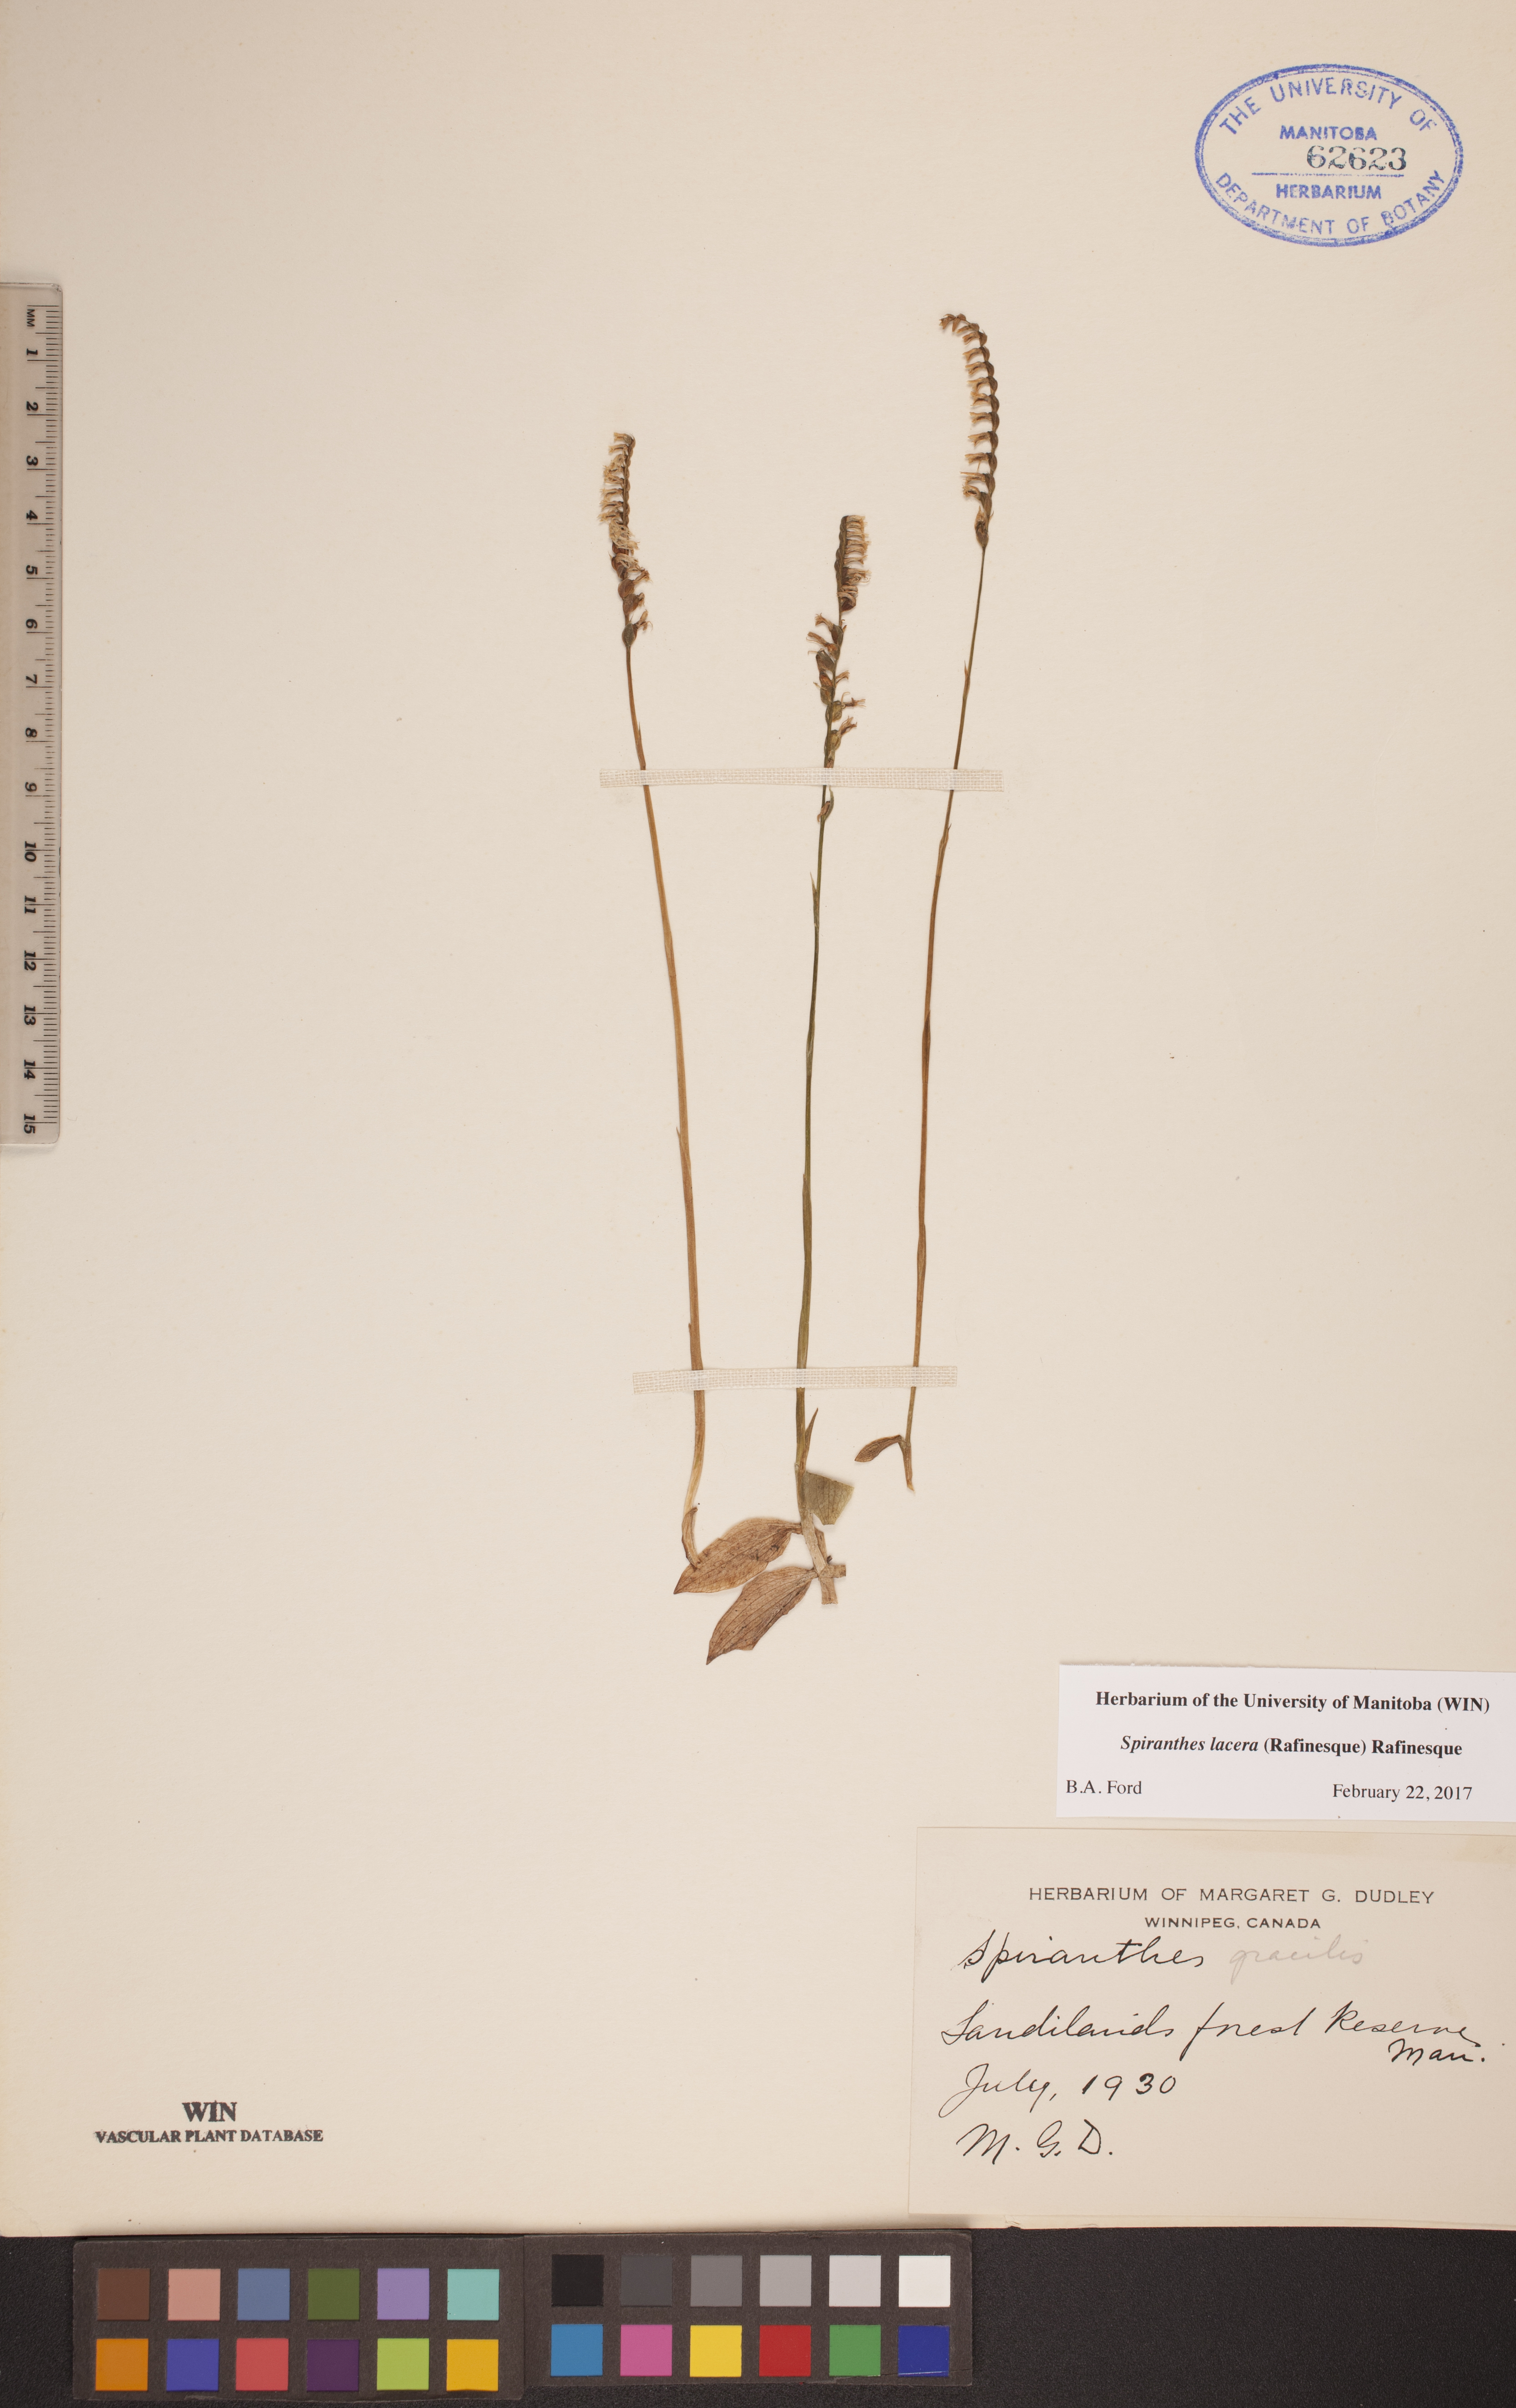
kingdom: Plantae
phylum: Tracheophyta
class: Liliopsida
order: Asparagales
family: Orchidaceae
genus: Spiranthes
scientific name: Spiranthes lacera
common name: Northern slender ladies'-tresses
